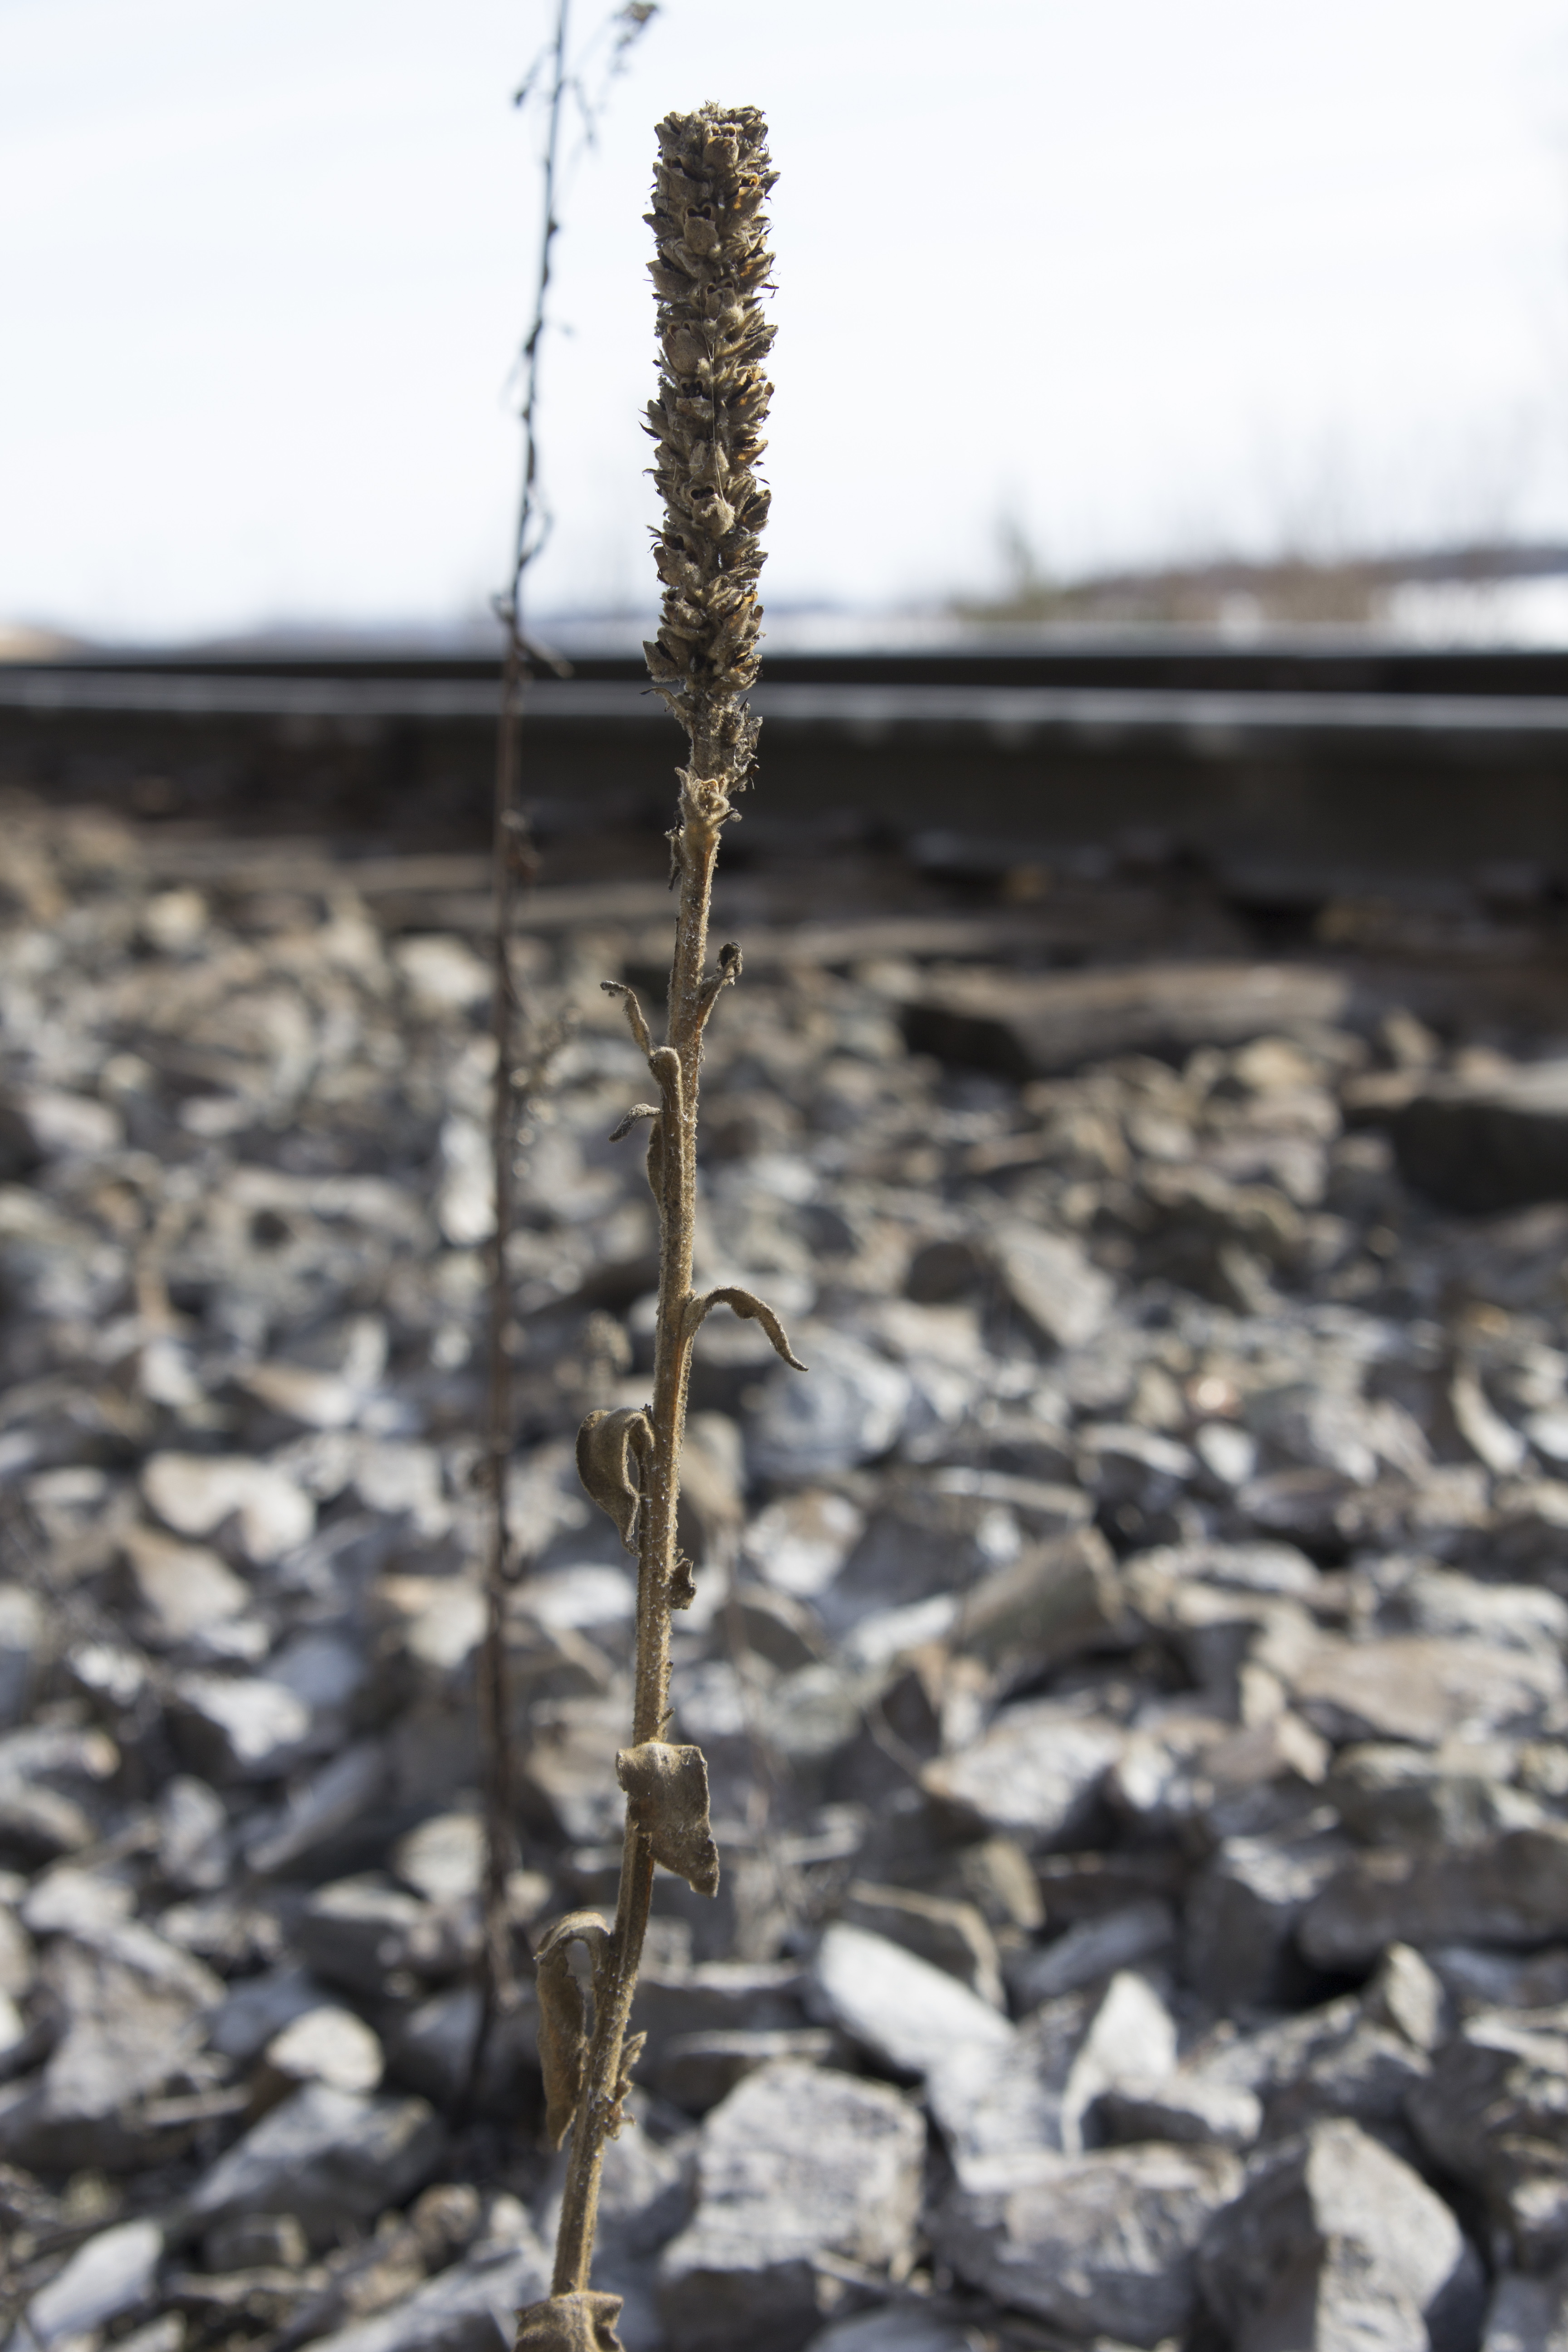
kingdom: Plantae
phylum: Tracheophyta
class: Magnoliopsida
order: Lamiales
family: Scrophulariaceae
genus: Verbascum
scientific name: Verbascum thapsus
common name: Common mullein
